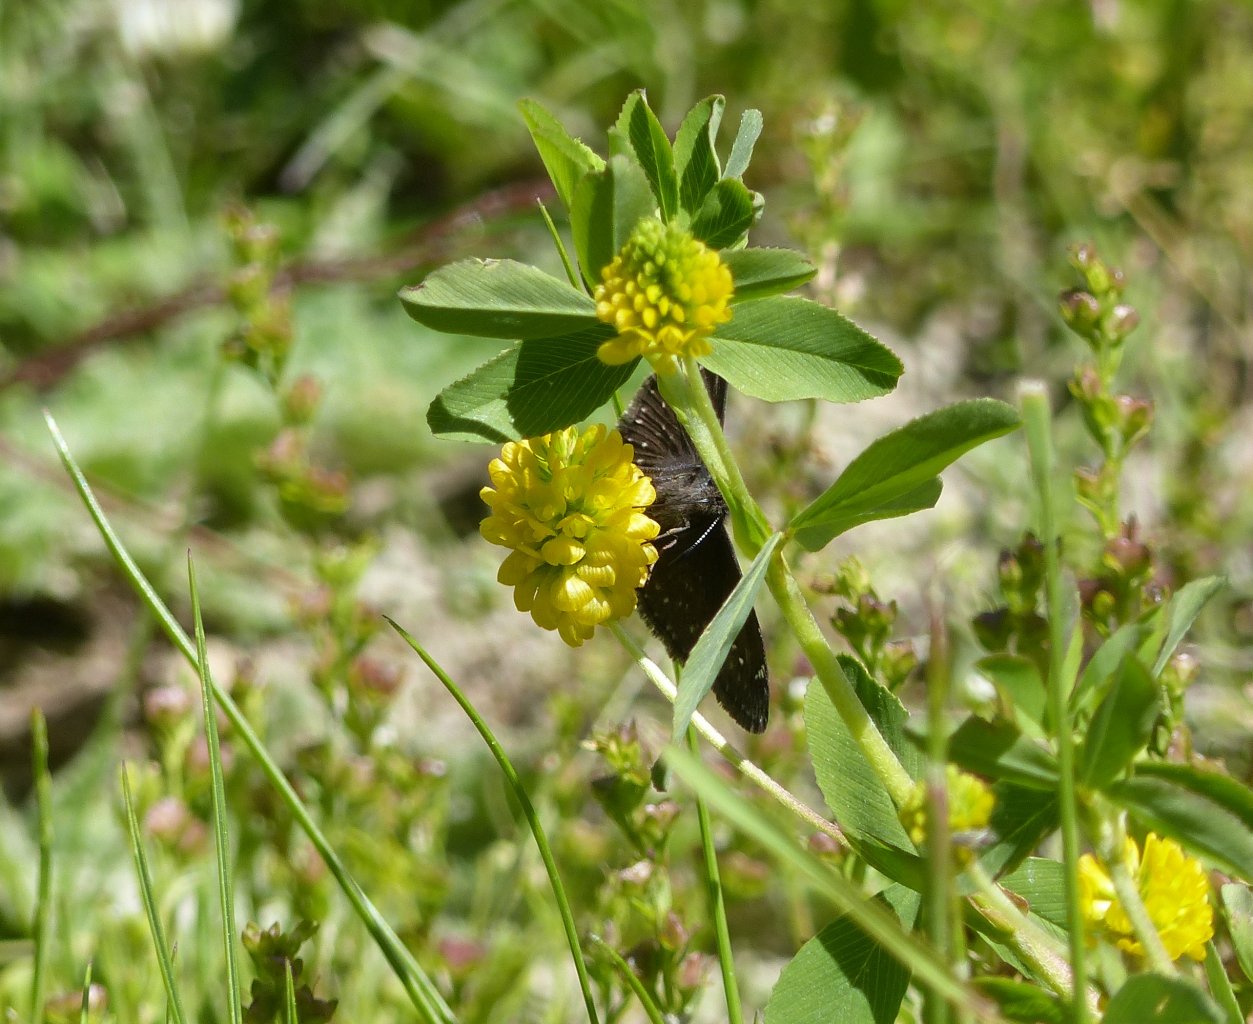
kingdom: Animalia
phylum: Arthropoda
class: Insecta
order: Lepidoptera
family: Hesperiidae
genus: Pholisora
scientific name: Pholisora catullus
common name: Common Sootywing
